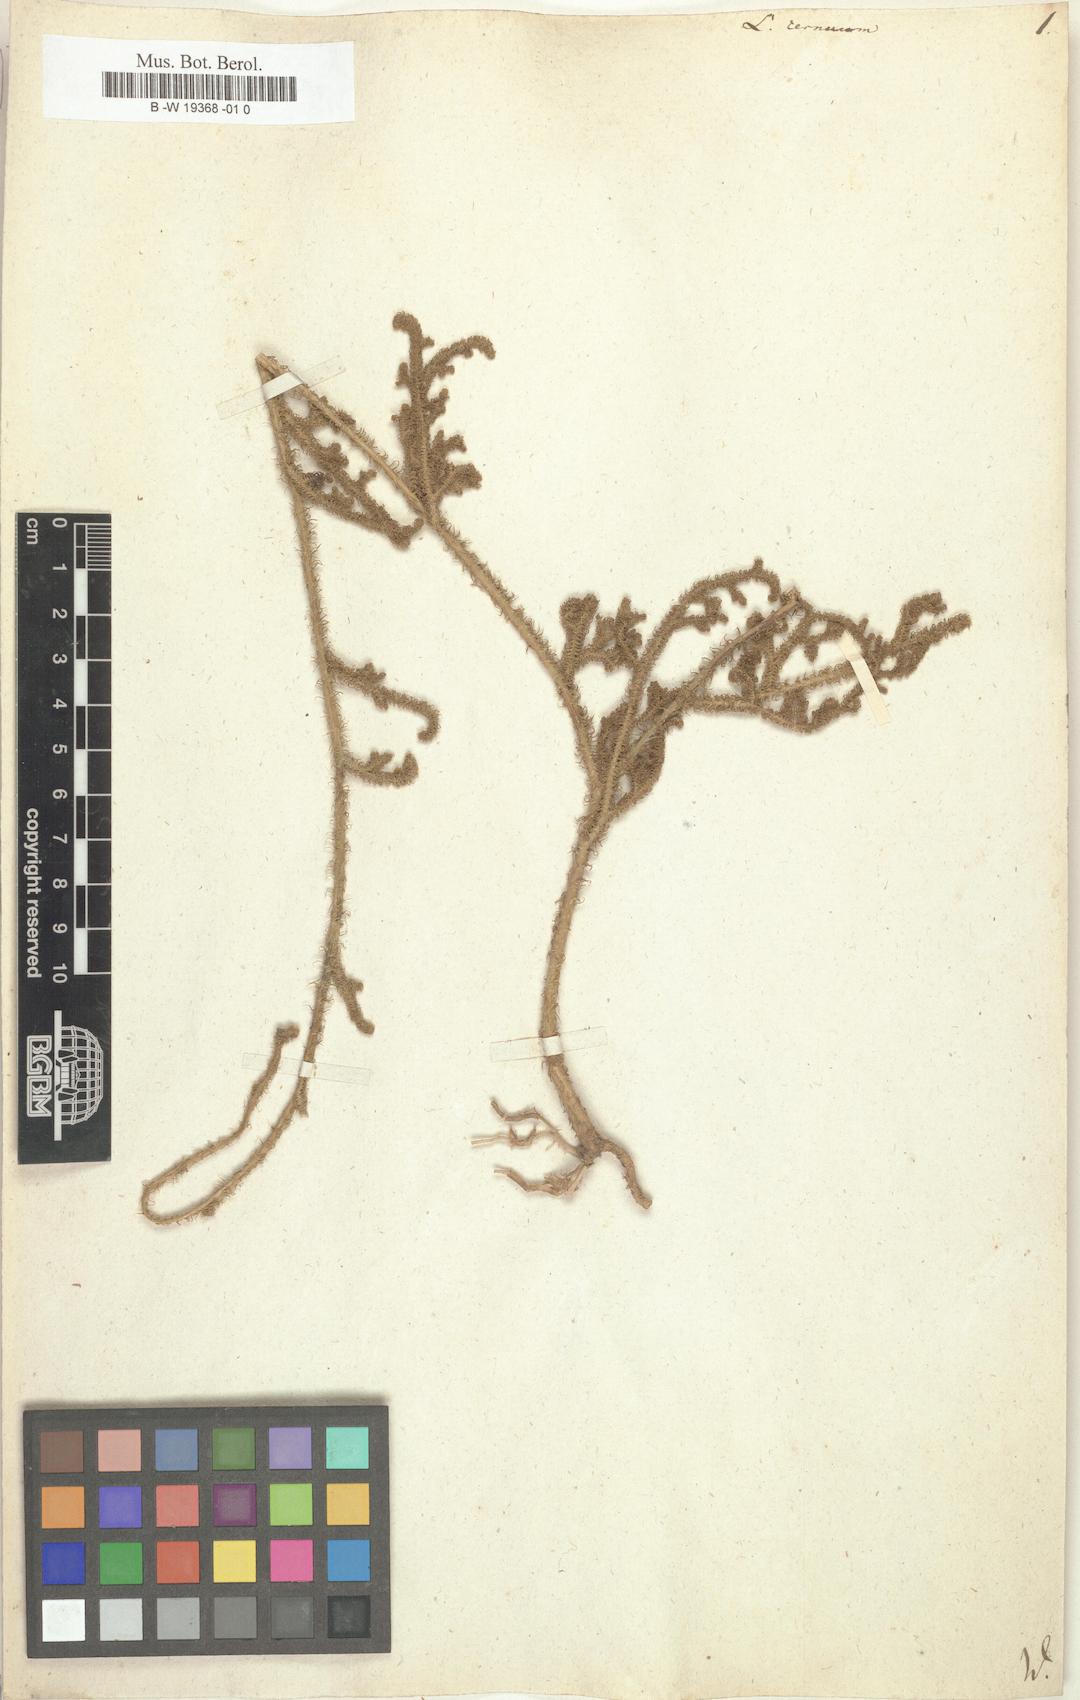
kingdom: Plantae
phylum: Tracheophyta
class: Lycopodiopsida
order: Lycopodiales
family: Lycopodiaceae
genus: Palhinhaea
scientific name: Palhinhaea cernua
